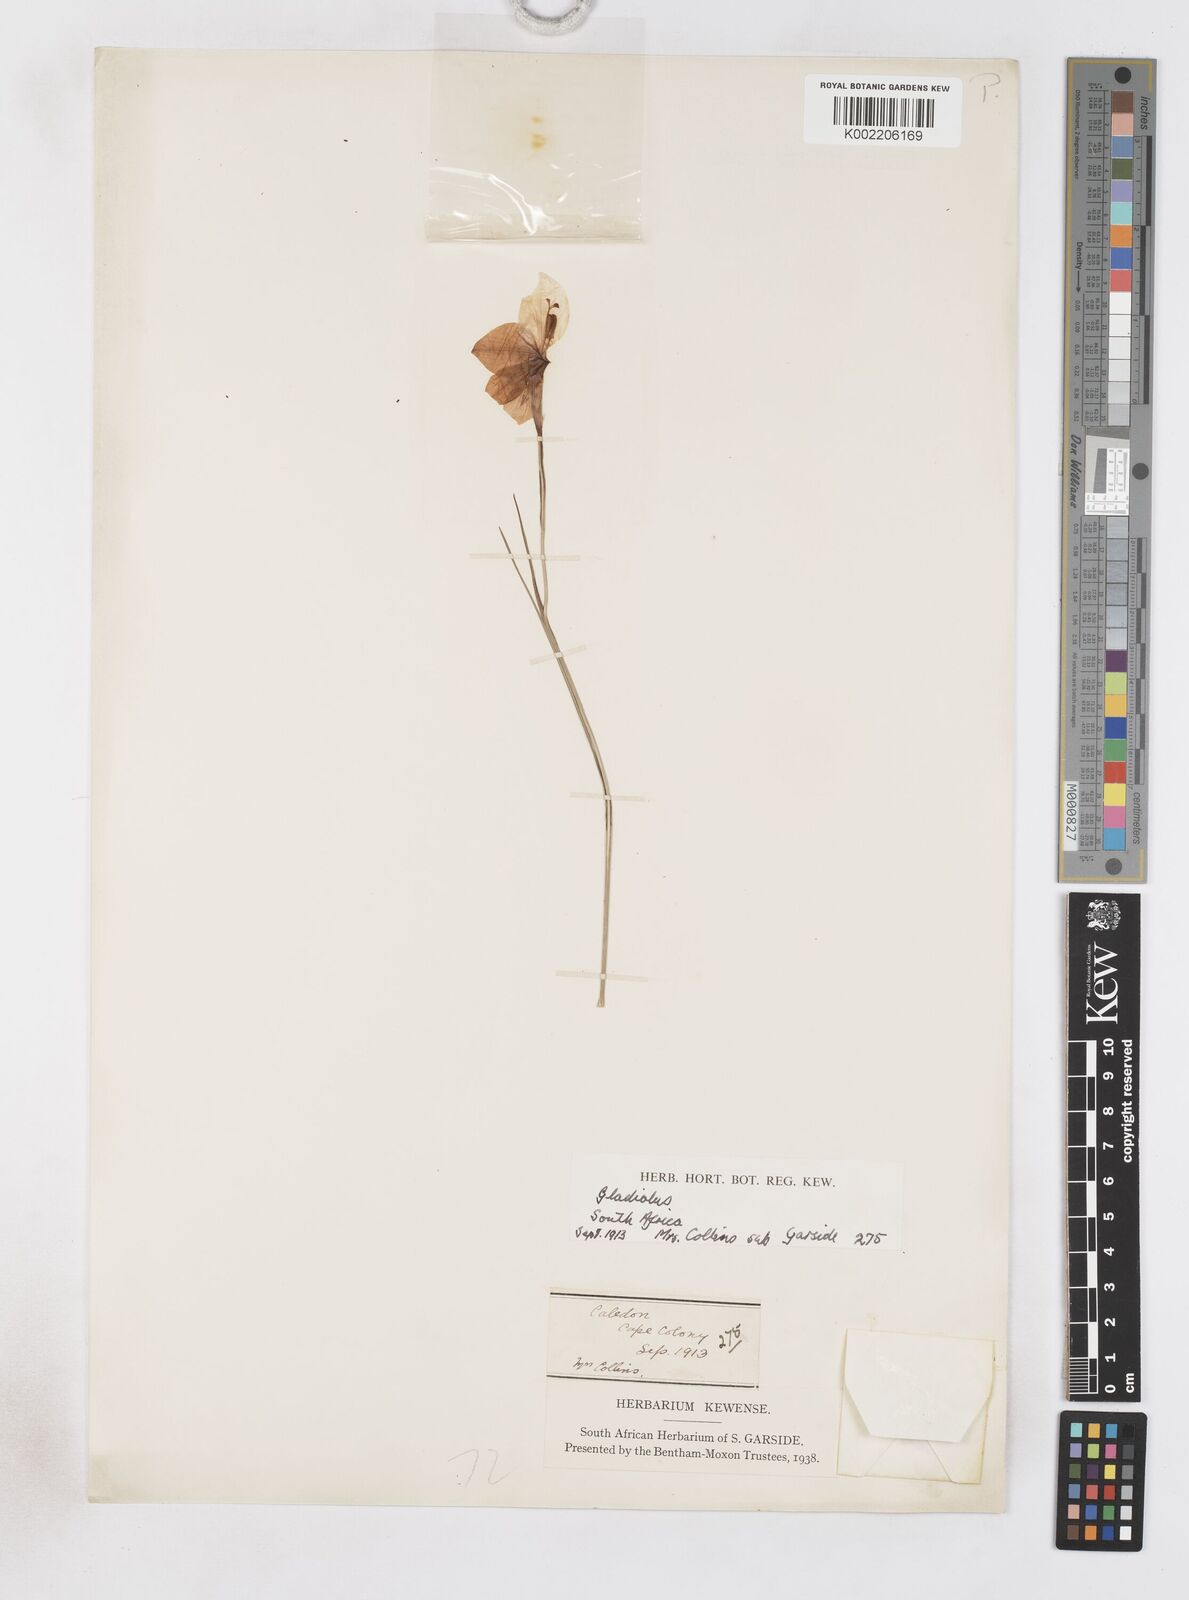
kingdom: Plantae
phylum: Tracheophyta
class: Liliopsida
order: Asparagales
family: Iridaceae
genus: Gladiolus
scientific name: Gladiolus ornatus
